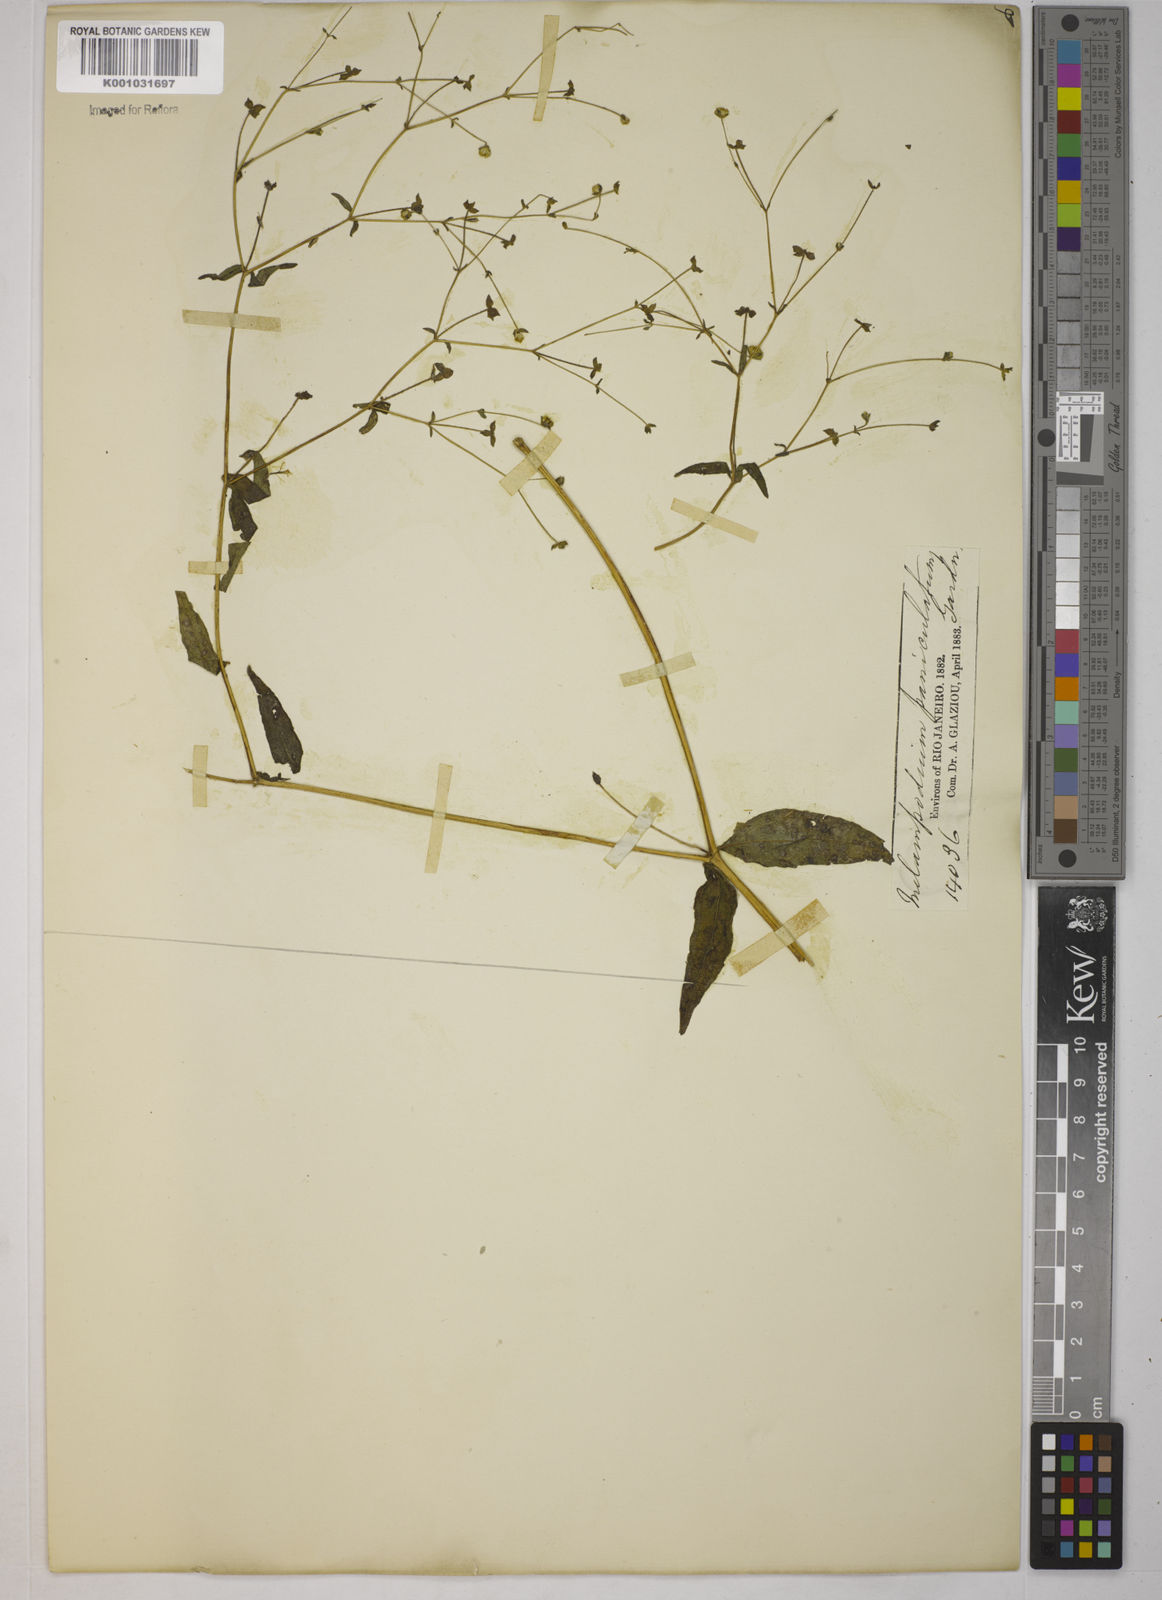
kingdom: Plantae
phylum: Tracheophyta
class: Magnoliopsida
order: Asterales
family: Asteraceae
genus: Melampodium
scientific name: Melampodium paniculatum
